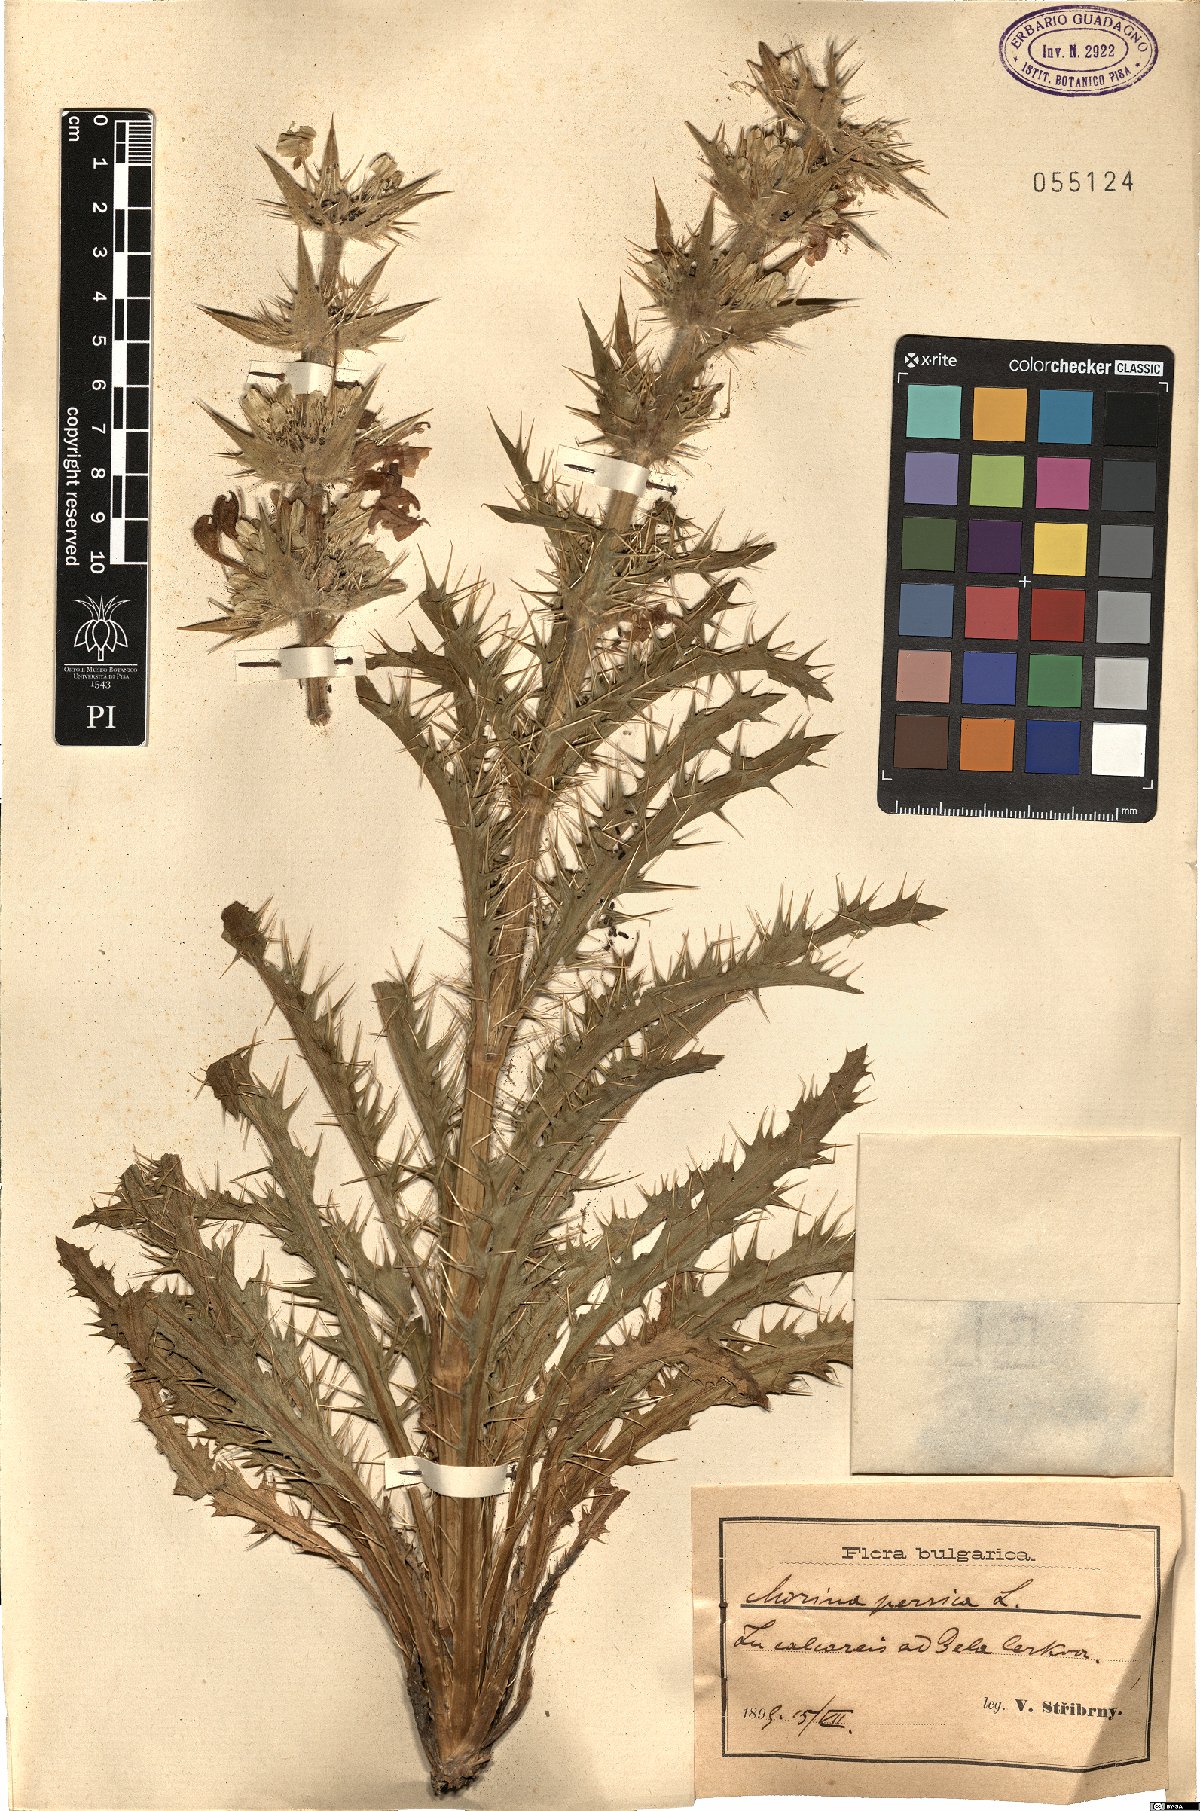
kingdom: Plantae
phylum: Tracheophyta
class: Magnoliopsida
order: Dipsacales
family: Caprifoliaceae
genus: Morina
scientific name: Morina persica
